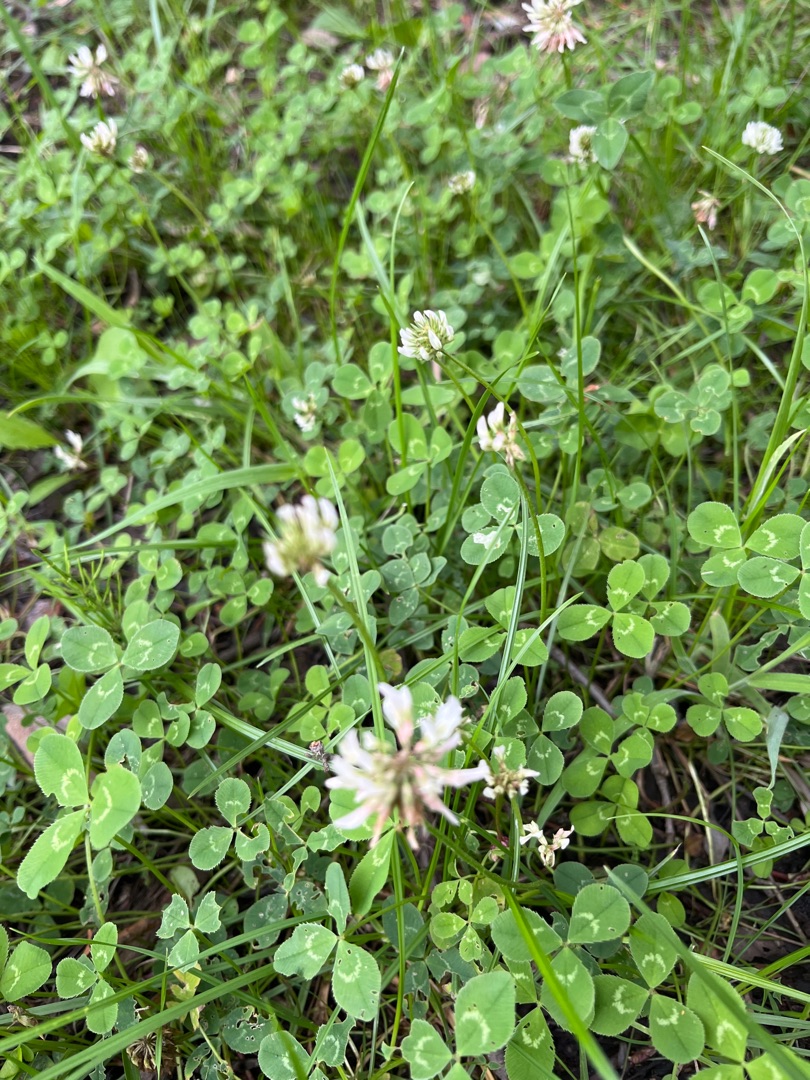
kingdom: Plantae
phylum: Tracheophyta
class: Magnoliopsida
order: Fabales
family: Fabaceae
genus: Trifolium
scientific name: Trifolium repens
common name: Hvid-kløver
